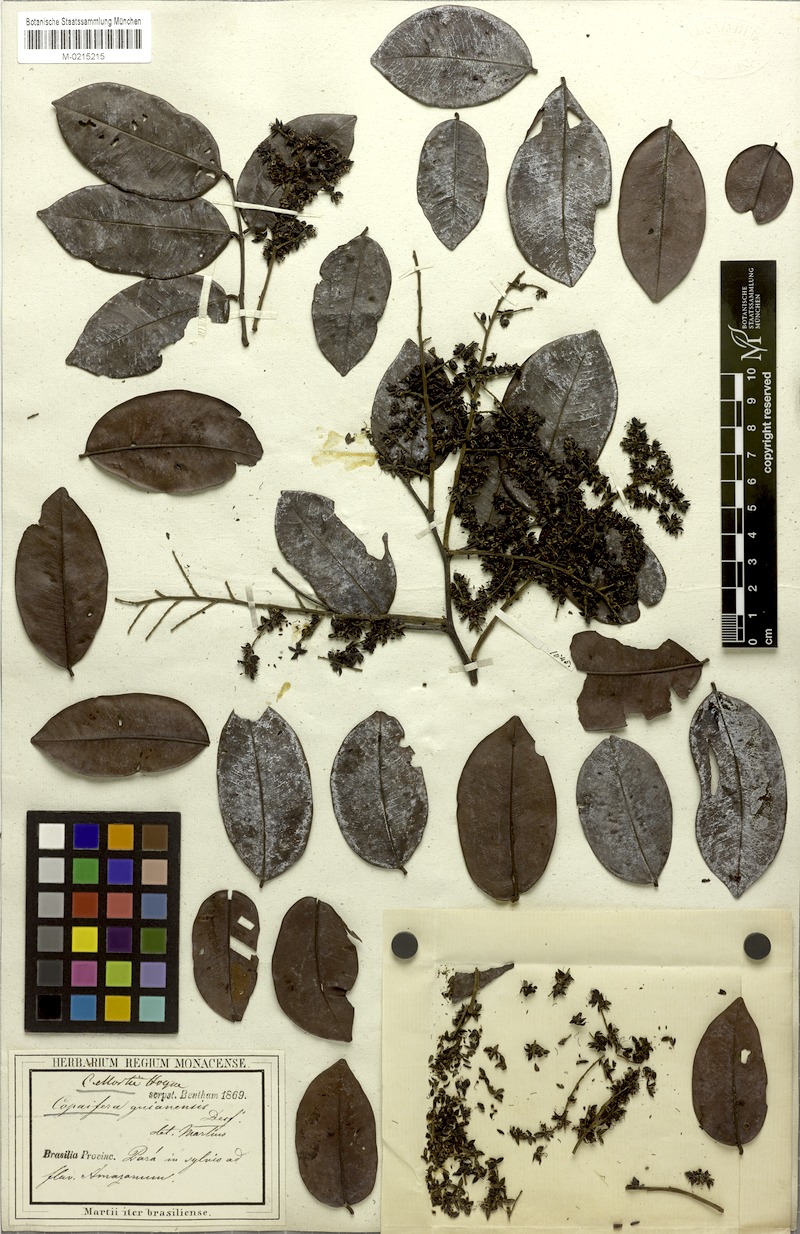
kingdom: Plantae
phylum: Tracheophyta
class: Magnoliopsida
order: Fabales
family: Fabaceae
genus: Copaifera
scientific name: Copaifera martii
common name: Copaiba
